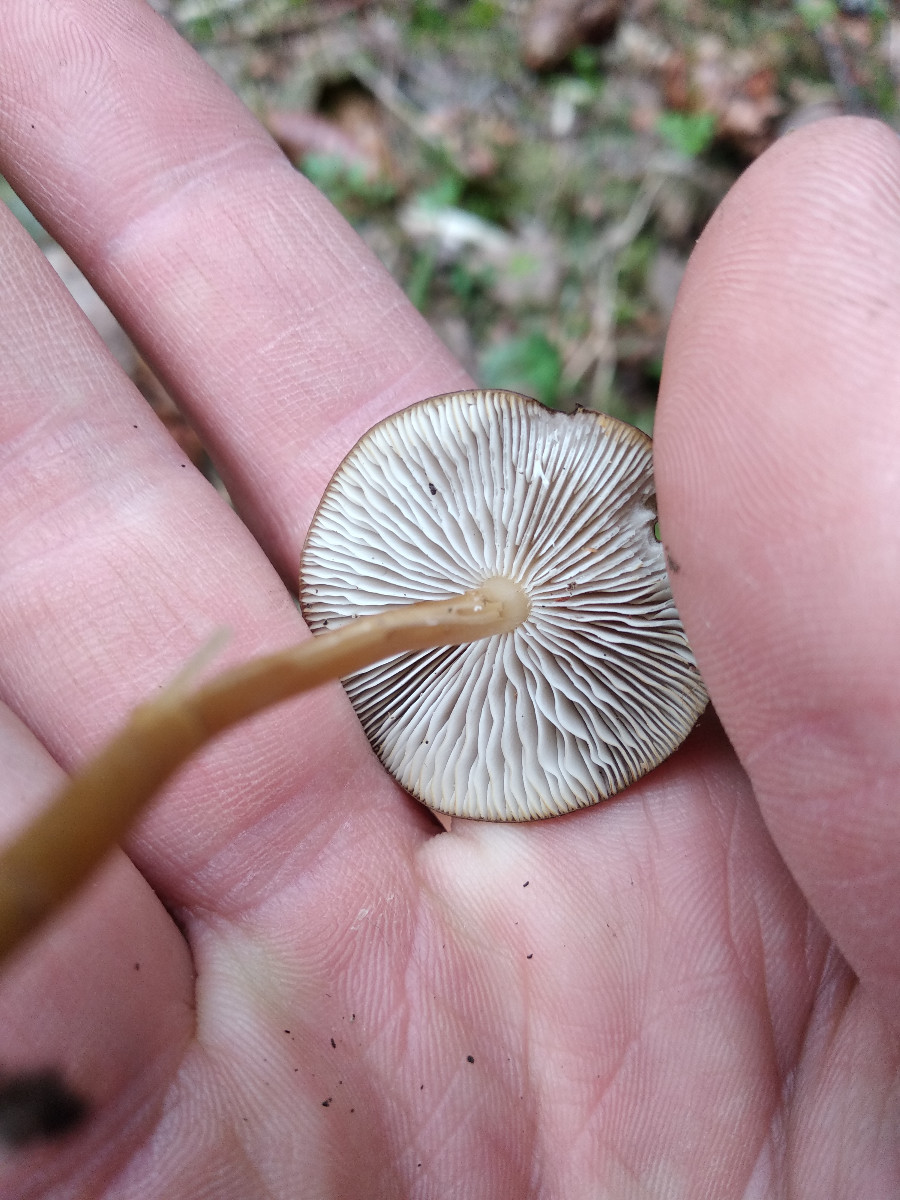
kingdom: Fungi
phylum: Basidiomycota
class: Agaricomycetes
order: Agaricales
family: Physalacriaceae
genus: Strobilurus
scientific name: Strobilurus esculentus
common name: gran-koglehat
